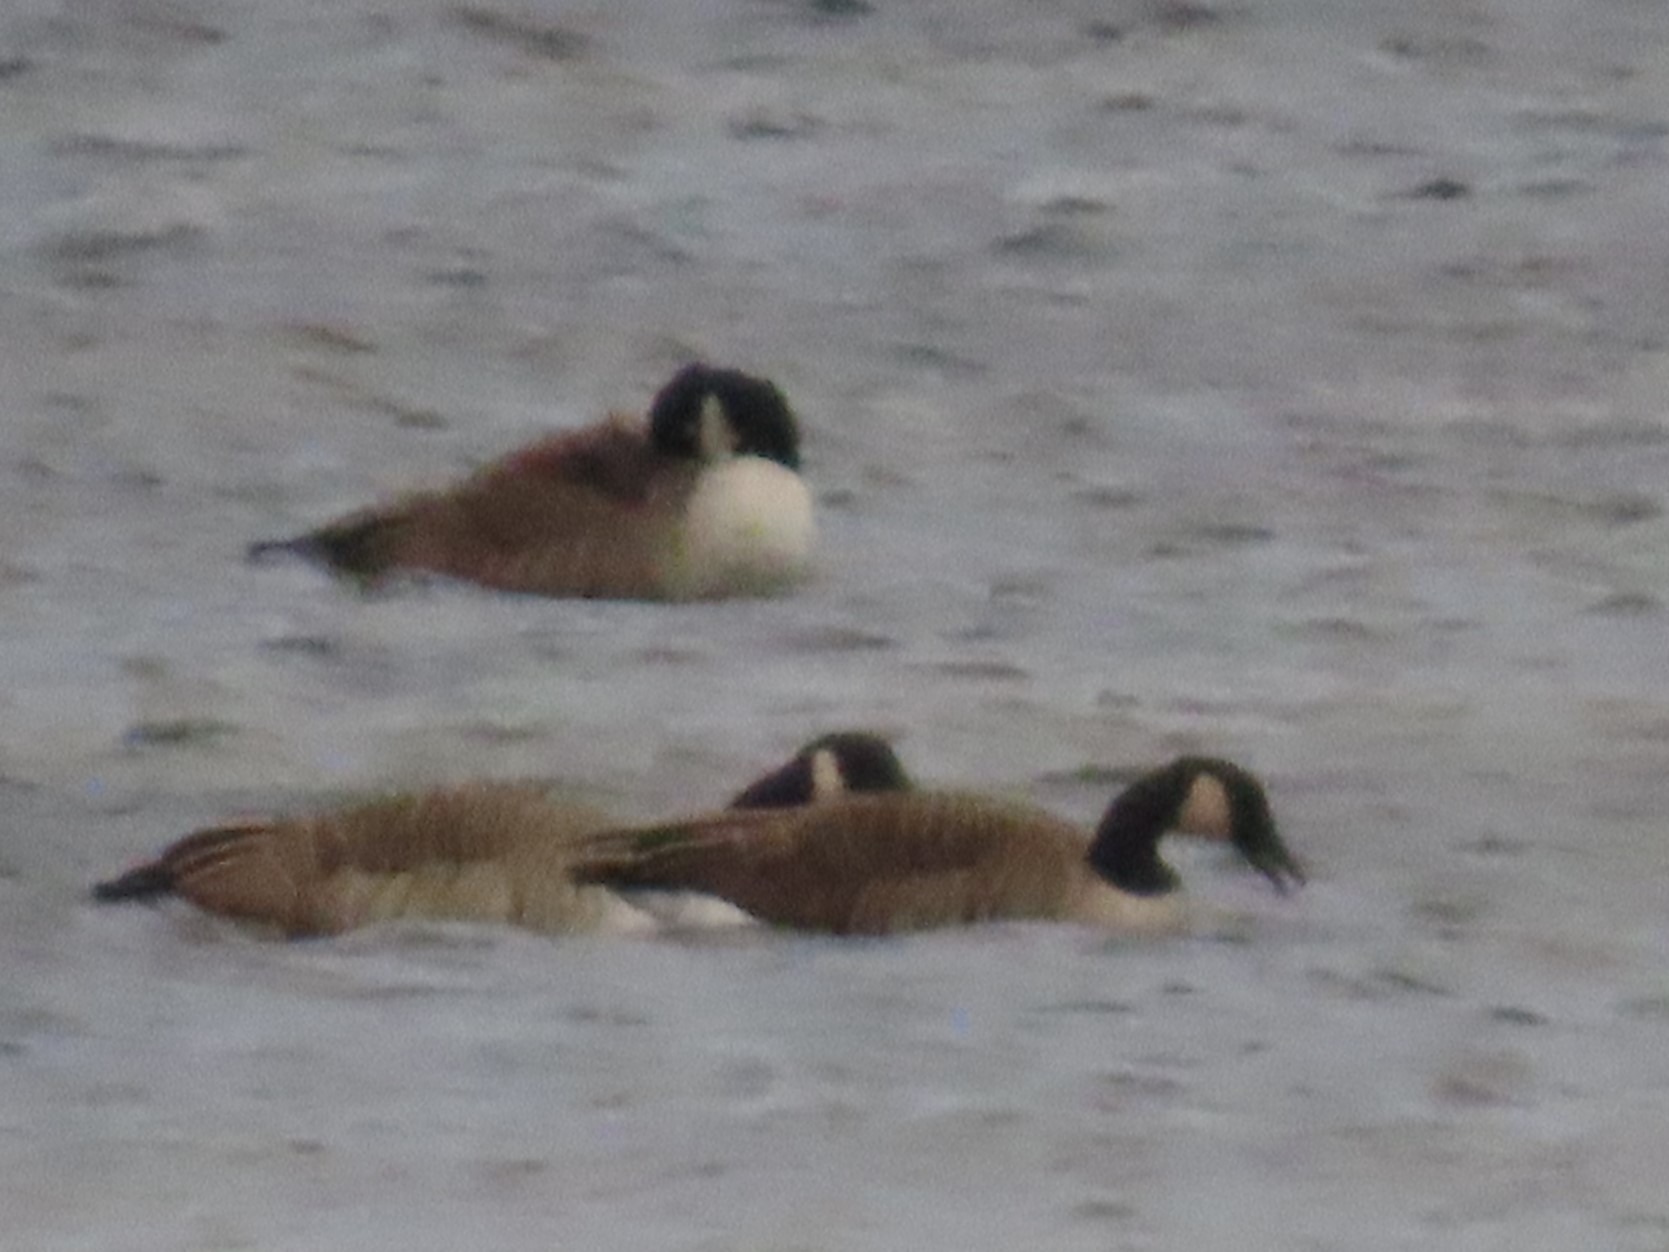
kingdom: Animalia
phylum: Chordata
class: Aves
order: Anseriformes
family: Anatidae
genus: Branta
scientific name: Branta canadensis
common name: Canadagås
